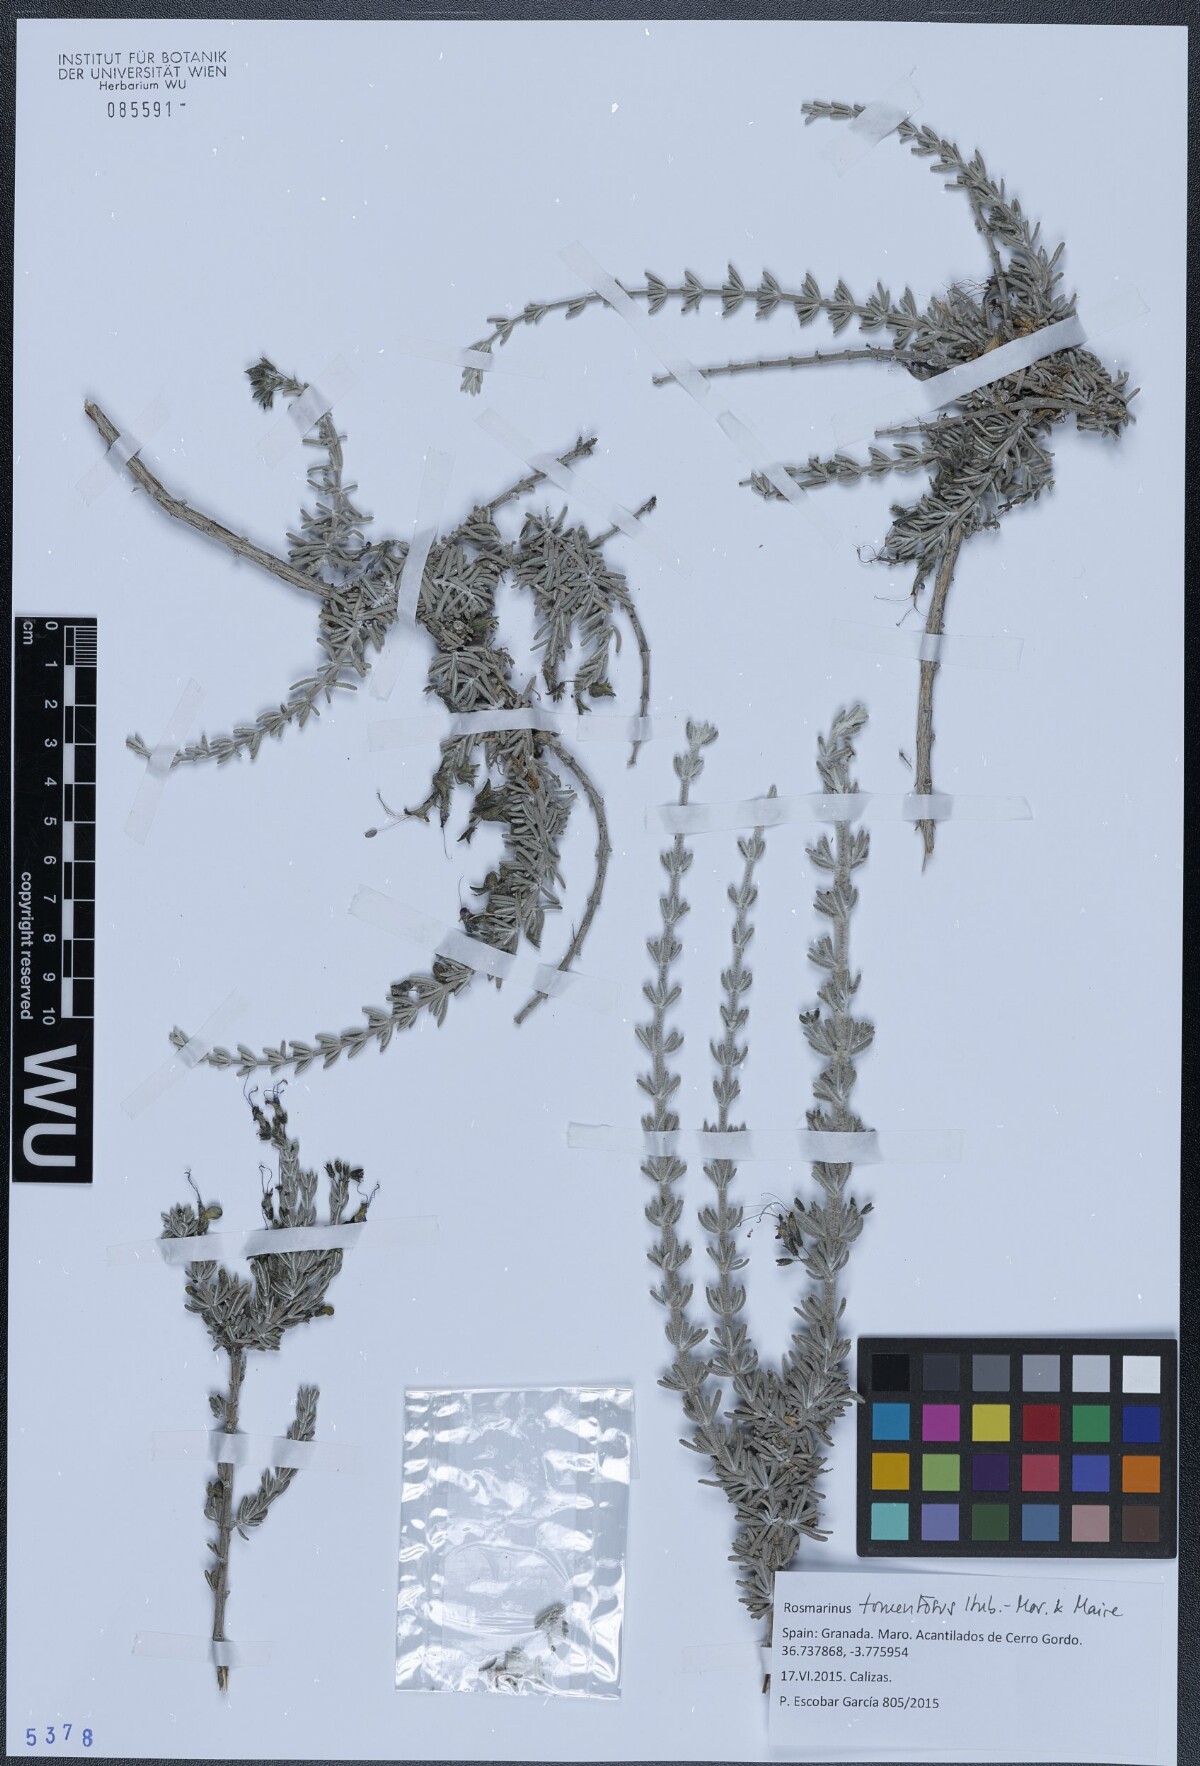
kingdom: Plantae
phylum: Tracheophyta
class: Magnoliopsida
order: Lamiales
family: Lamiaceae
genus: Salvia
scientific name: Salvia granatensis
